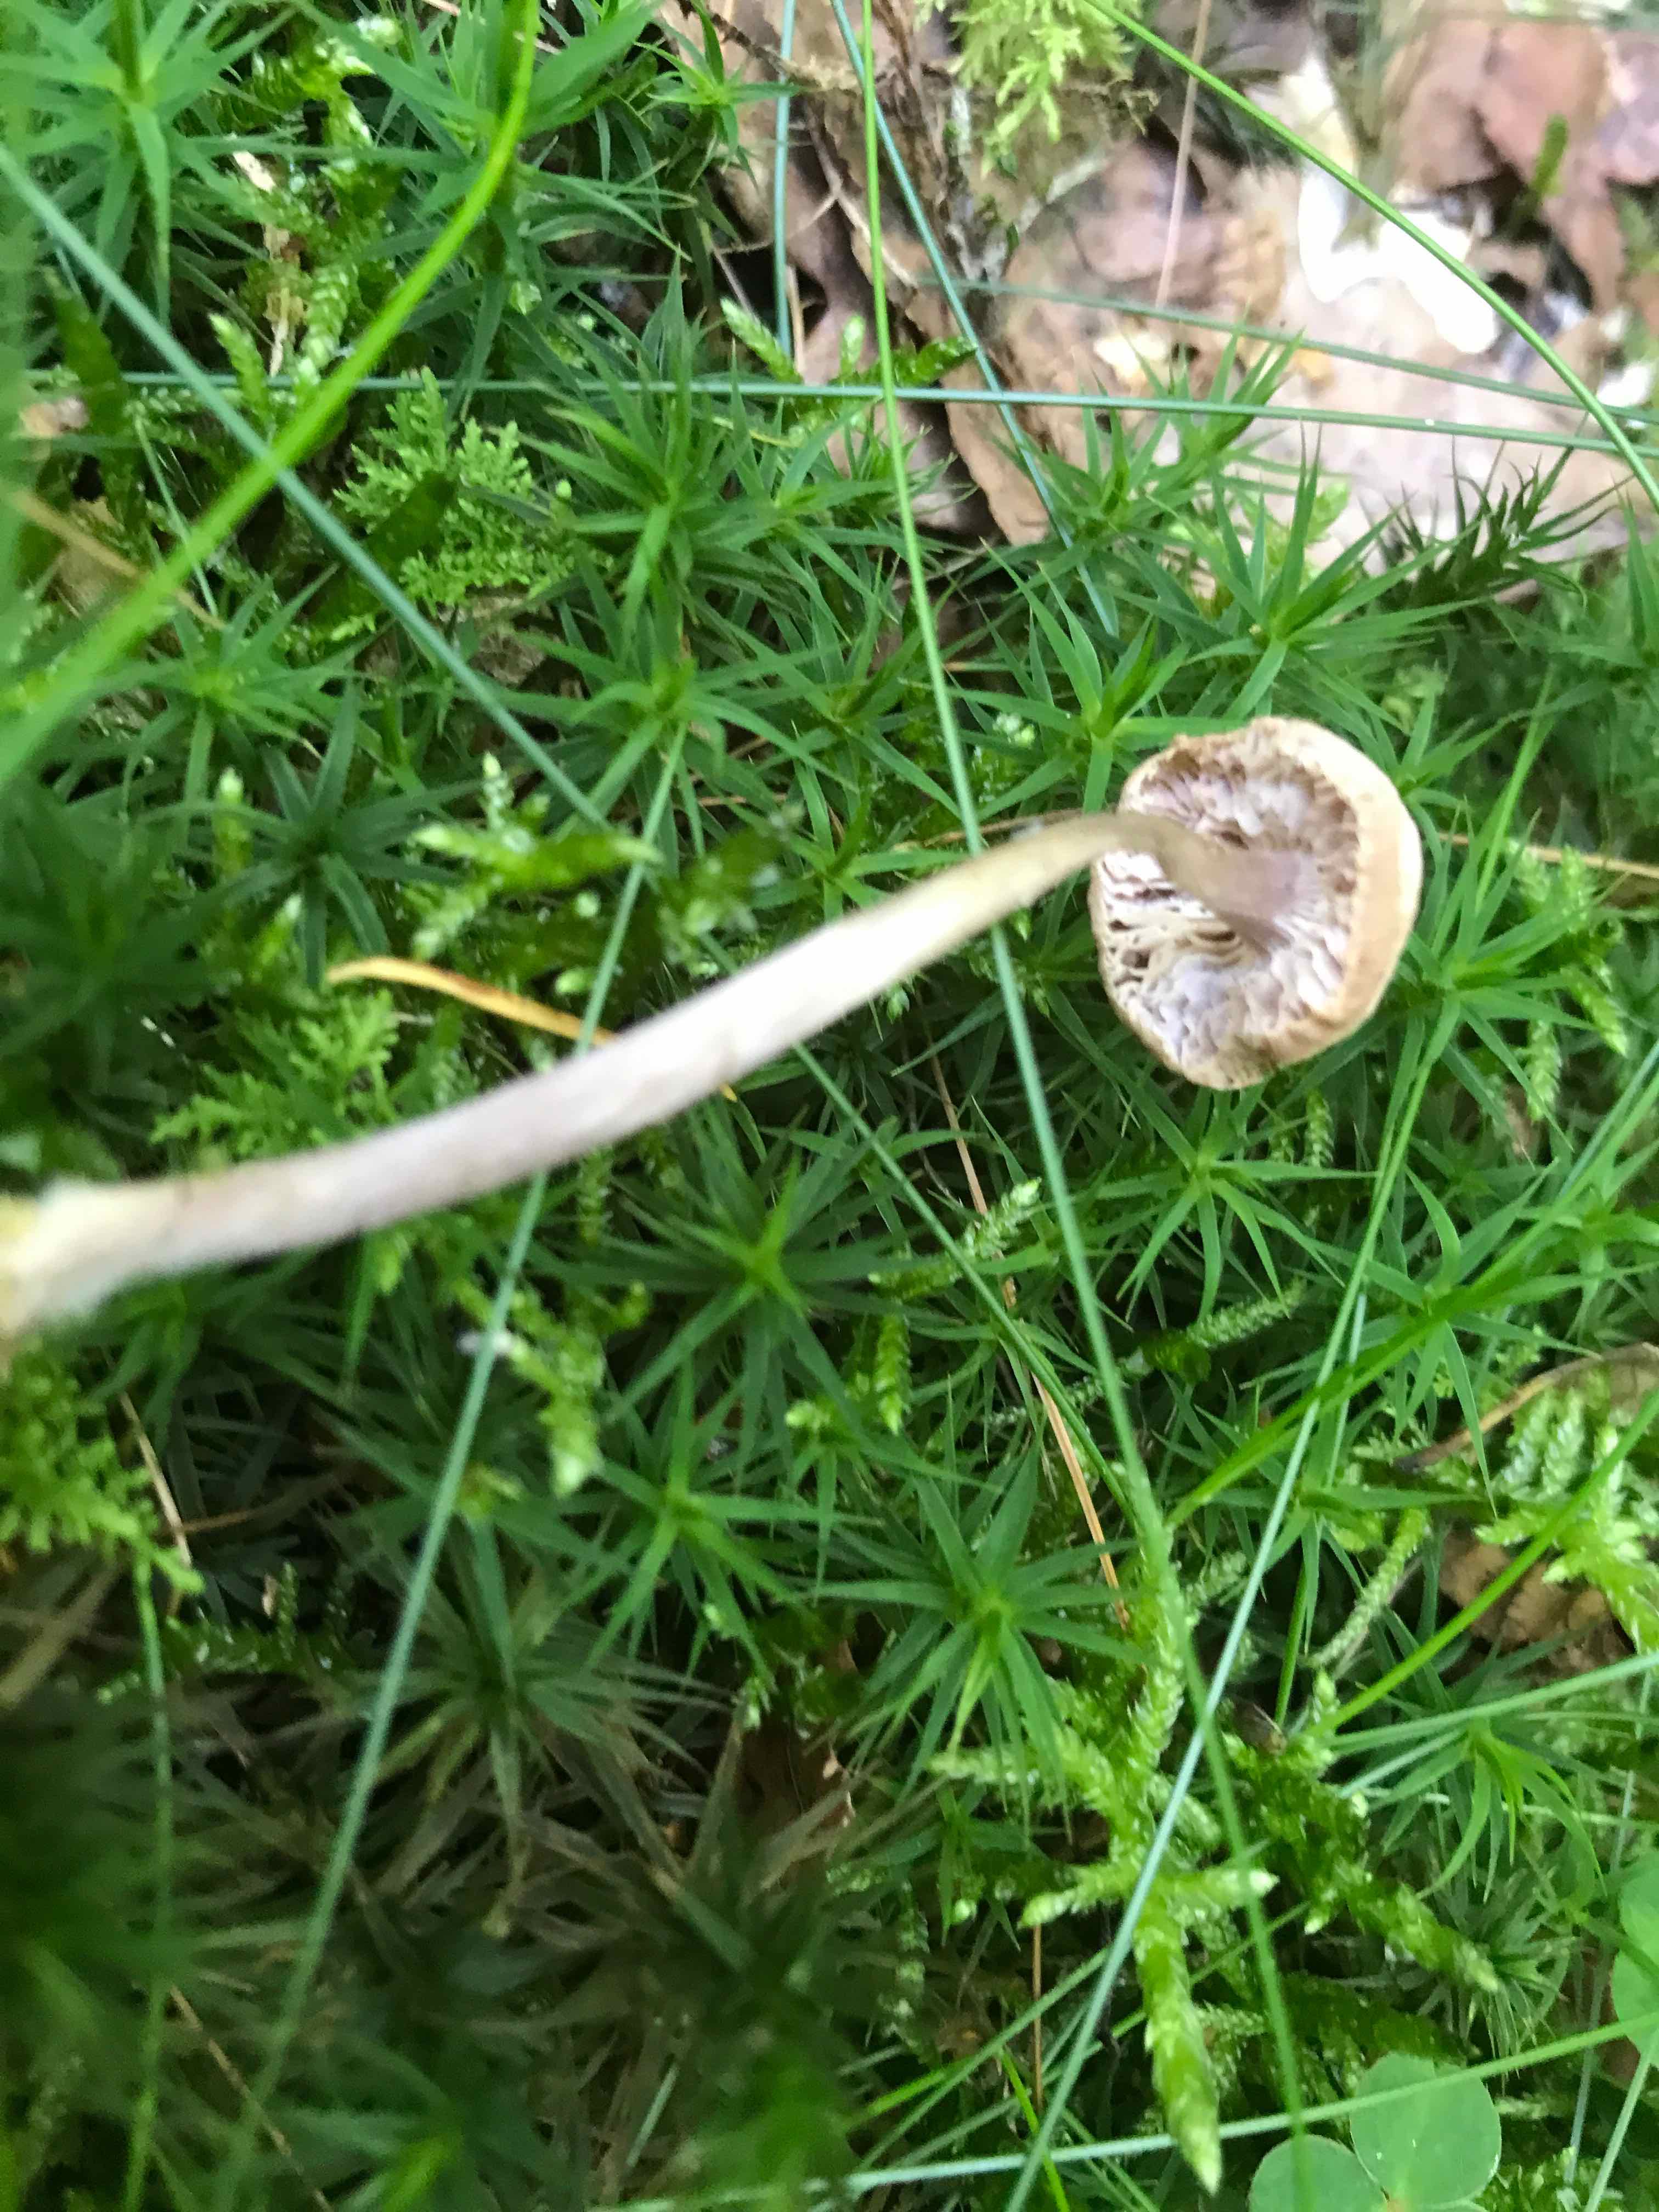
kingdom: Fungi
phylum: Basidiomycota
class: Agaricomycetes
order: Agaricales
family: Hydnangiaceae
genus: Laccaria
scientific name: Laccaria laccata
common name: rød ametysthat
